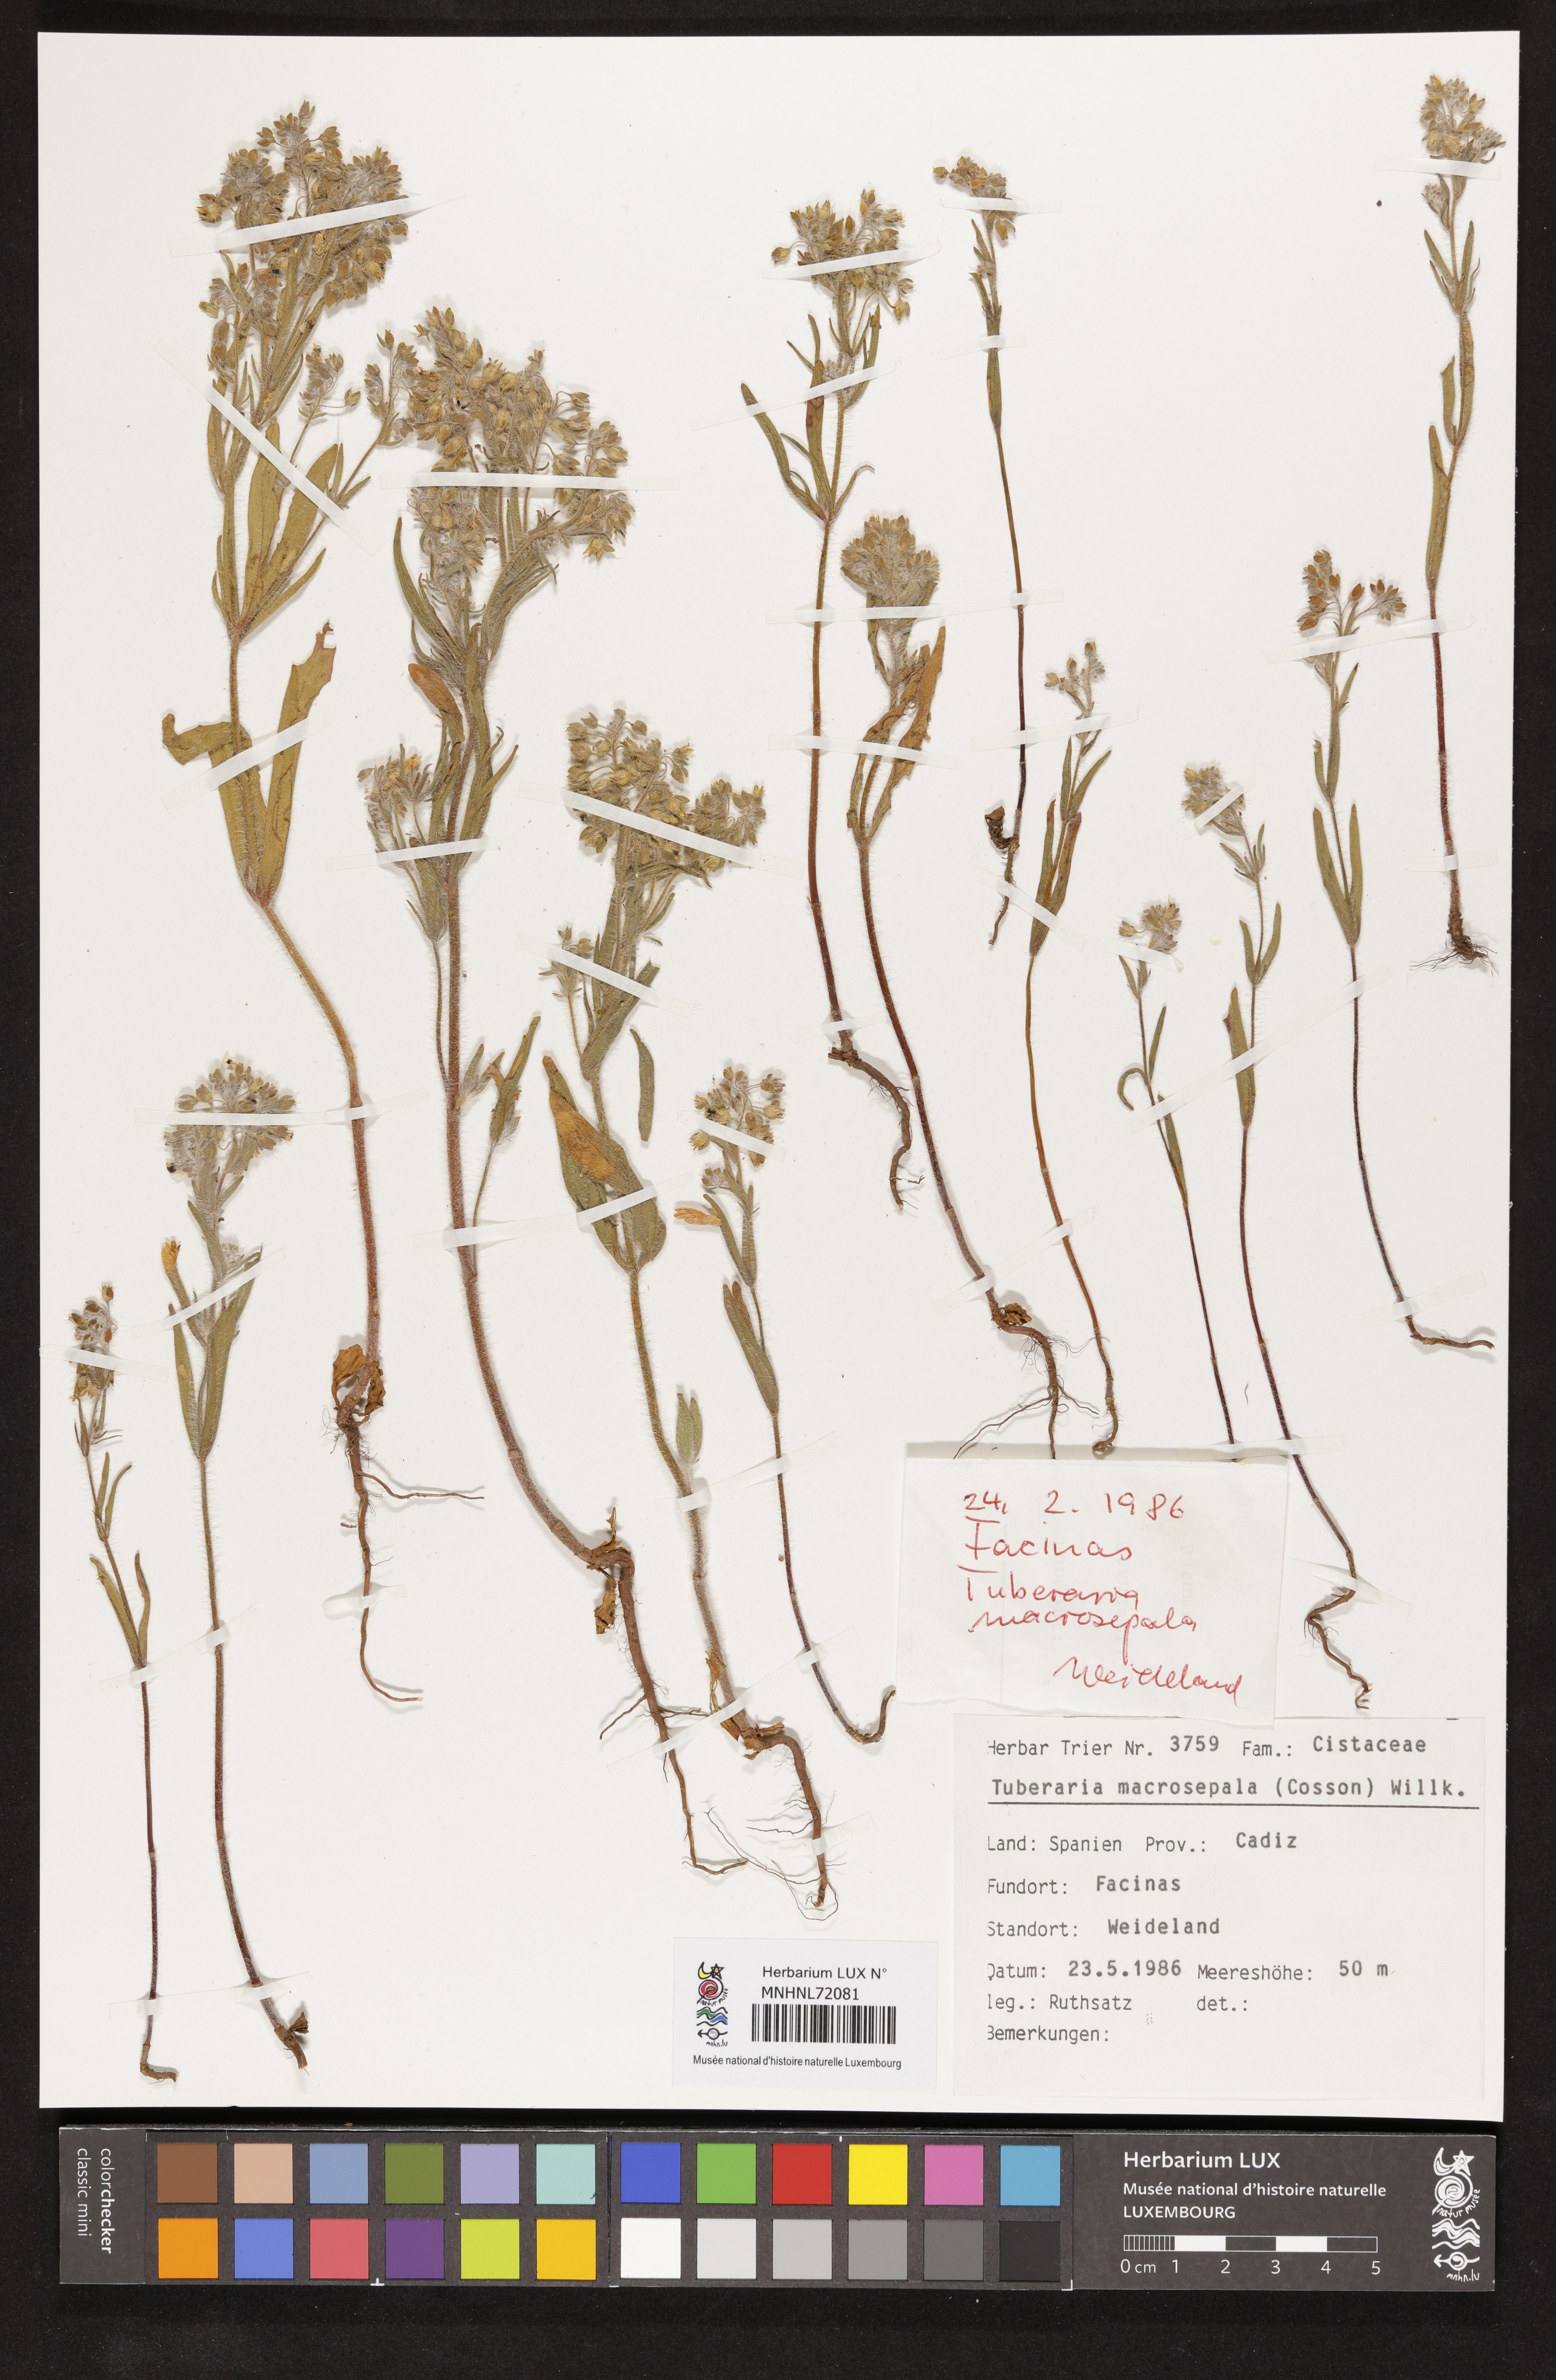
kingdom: Plantae
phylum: Tracheophyta
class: Magnoliopsida
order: Malvales
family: Cistaceae
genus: Tuberaria
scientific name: Tuberaria macrosepala
